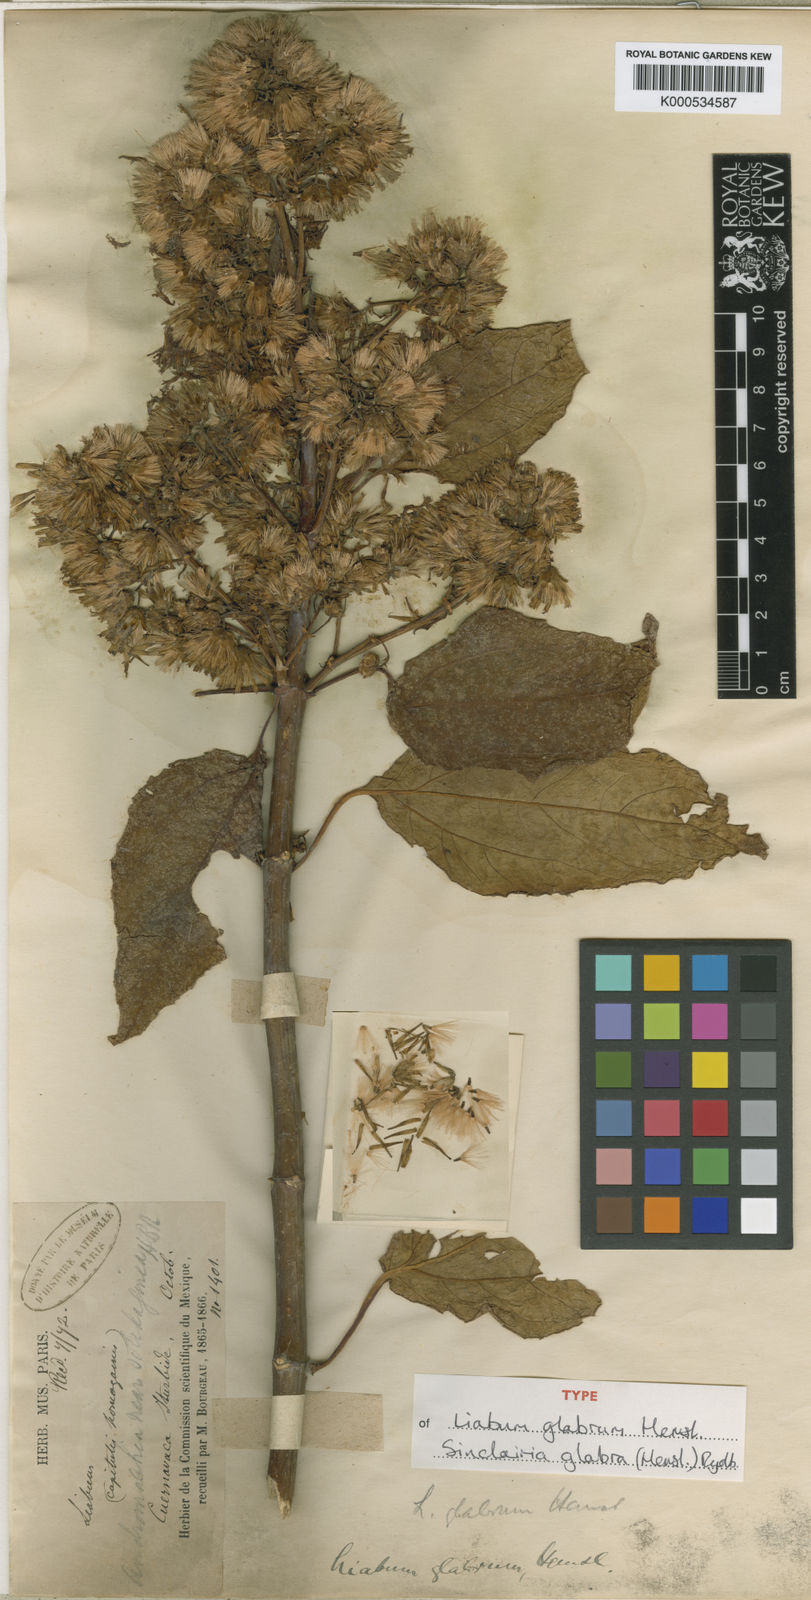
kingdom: Plantae
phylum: Tracheophyta
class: Magnoliopsida
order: Asterales
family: Asteraceae
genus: Sinclairia
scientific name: Sinclairia glabra
